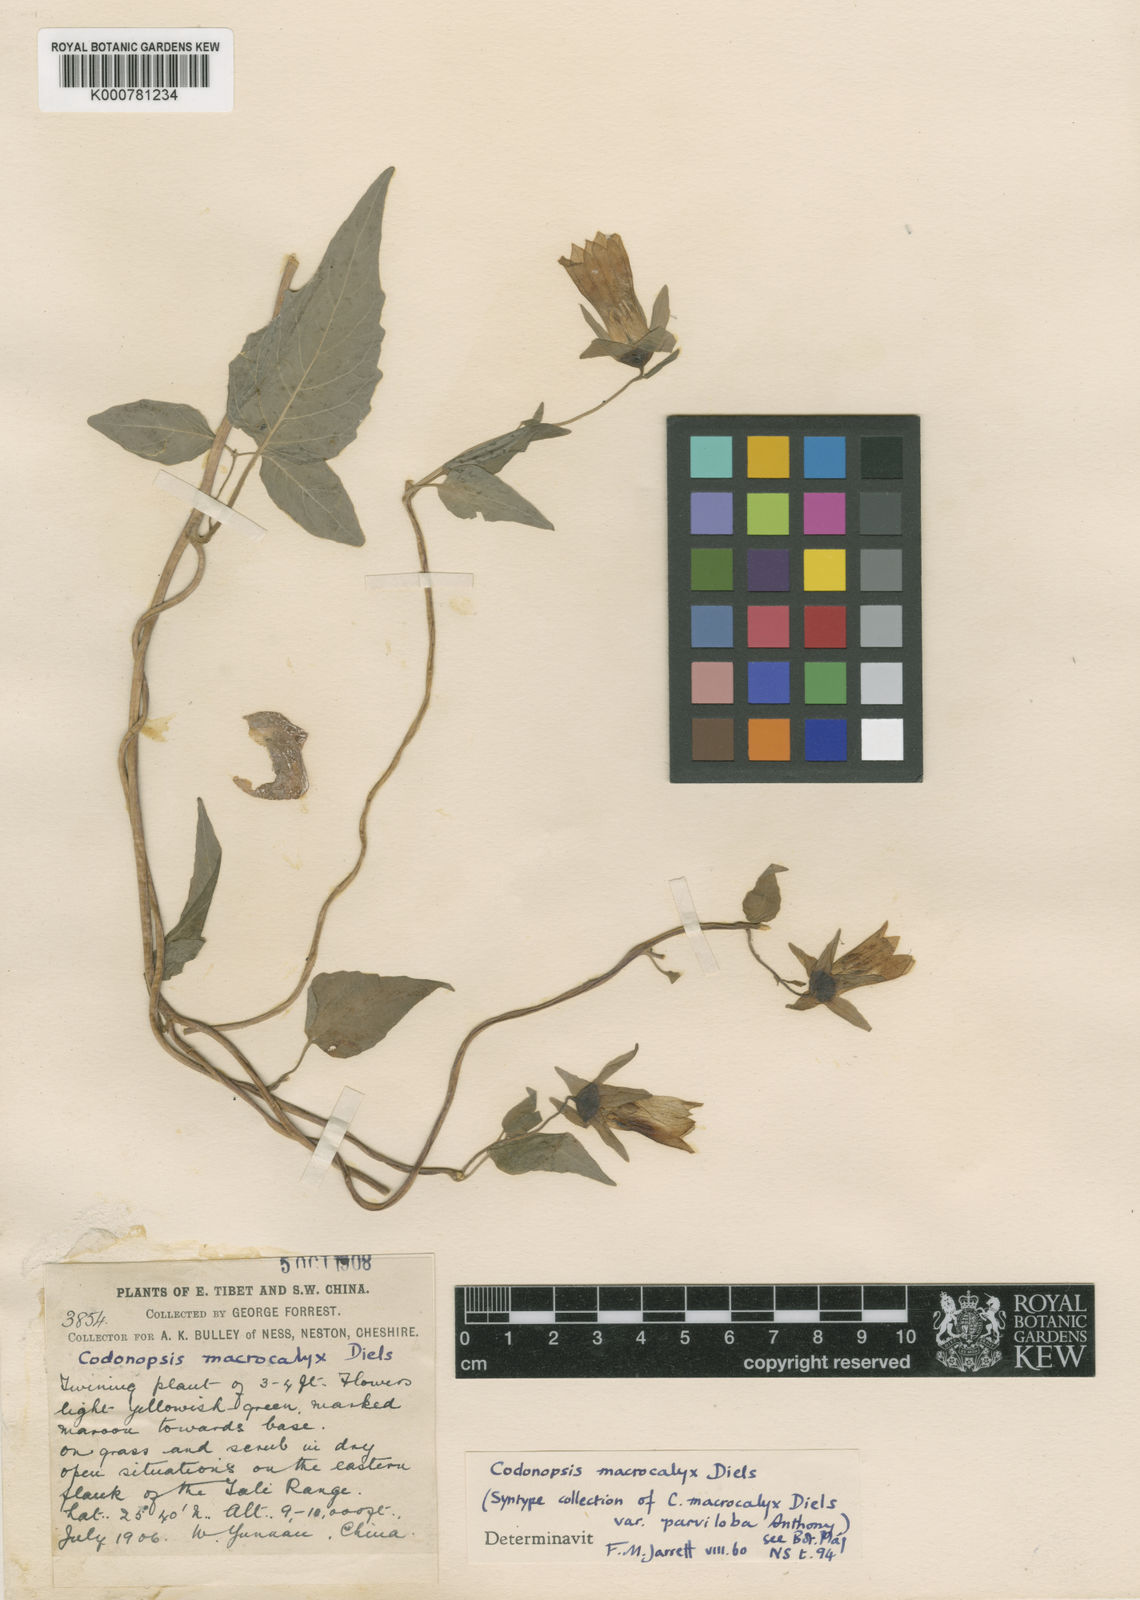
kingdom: Plantae
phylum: Tracheophyta
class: Magnoliopsida
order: Asterales
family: Campanulaceae
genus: Codonopsis
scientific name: Codonopsis benthamii
